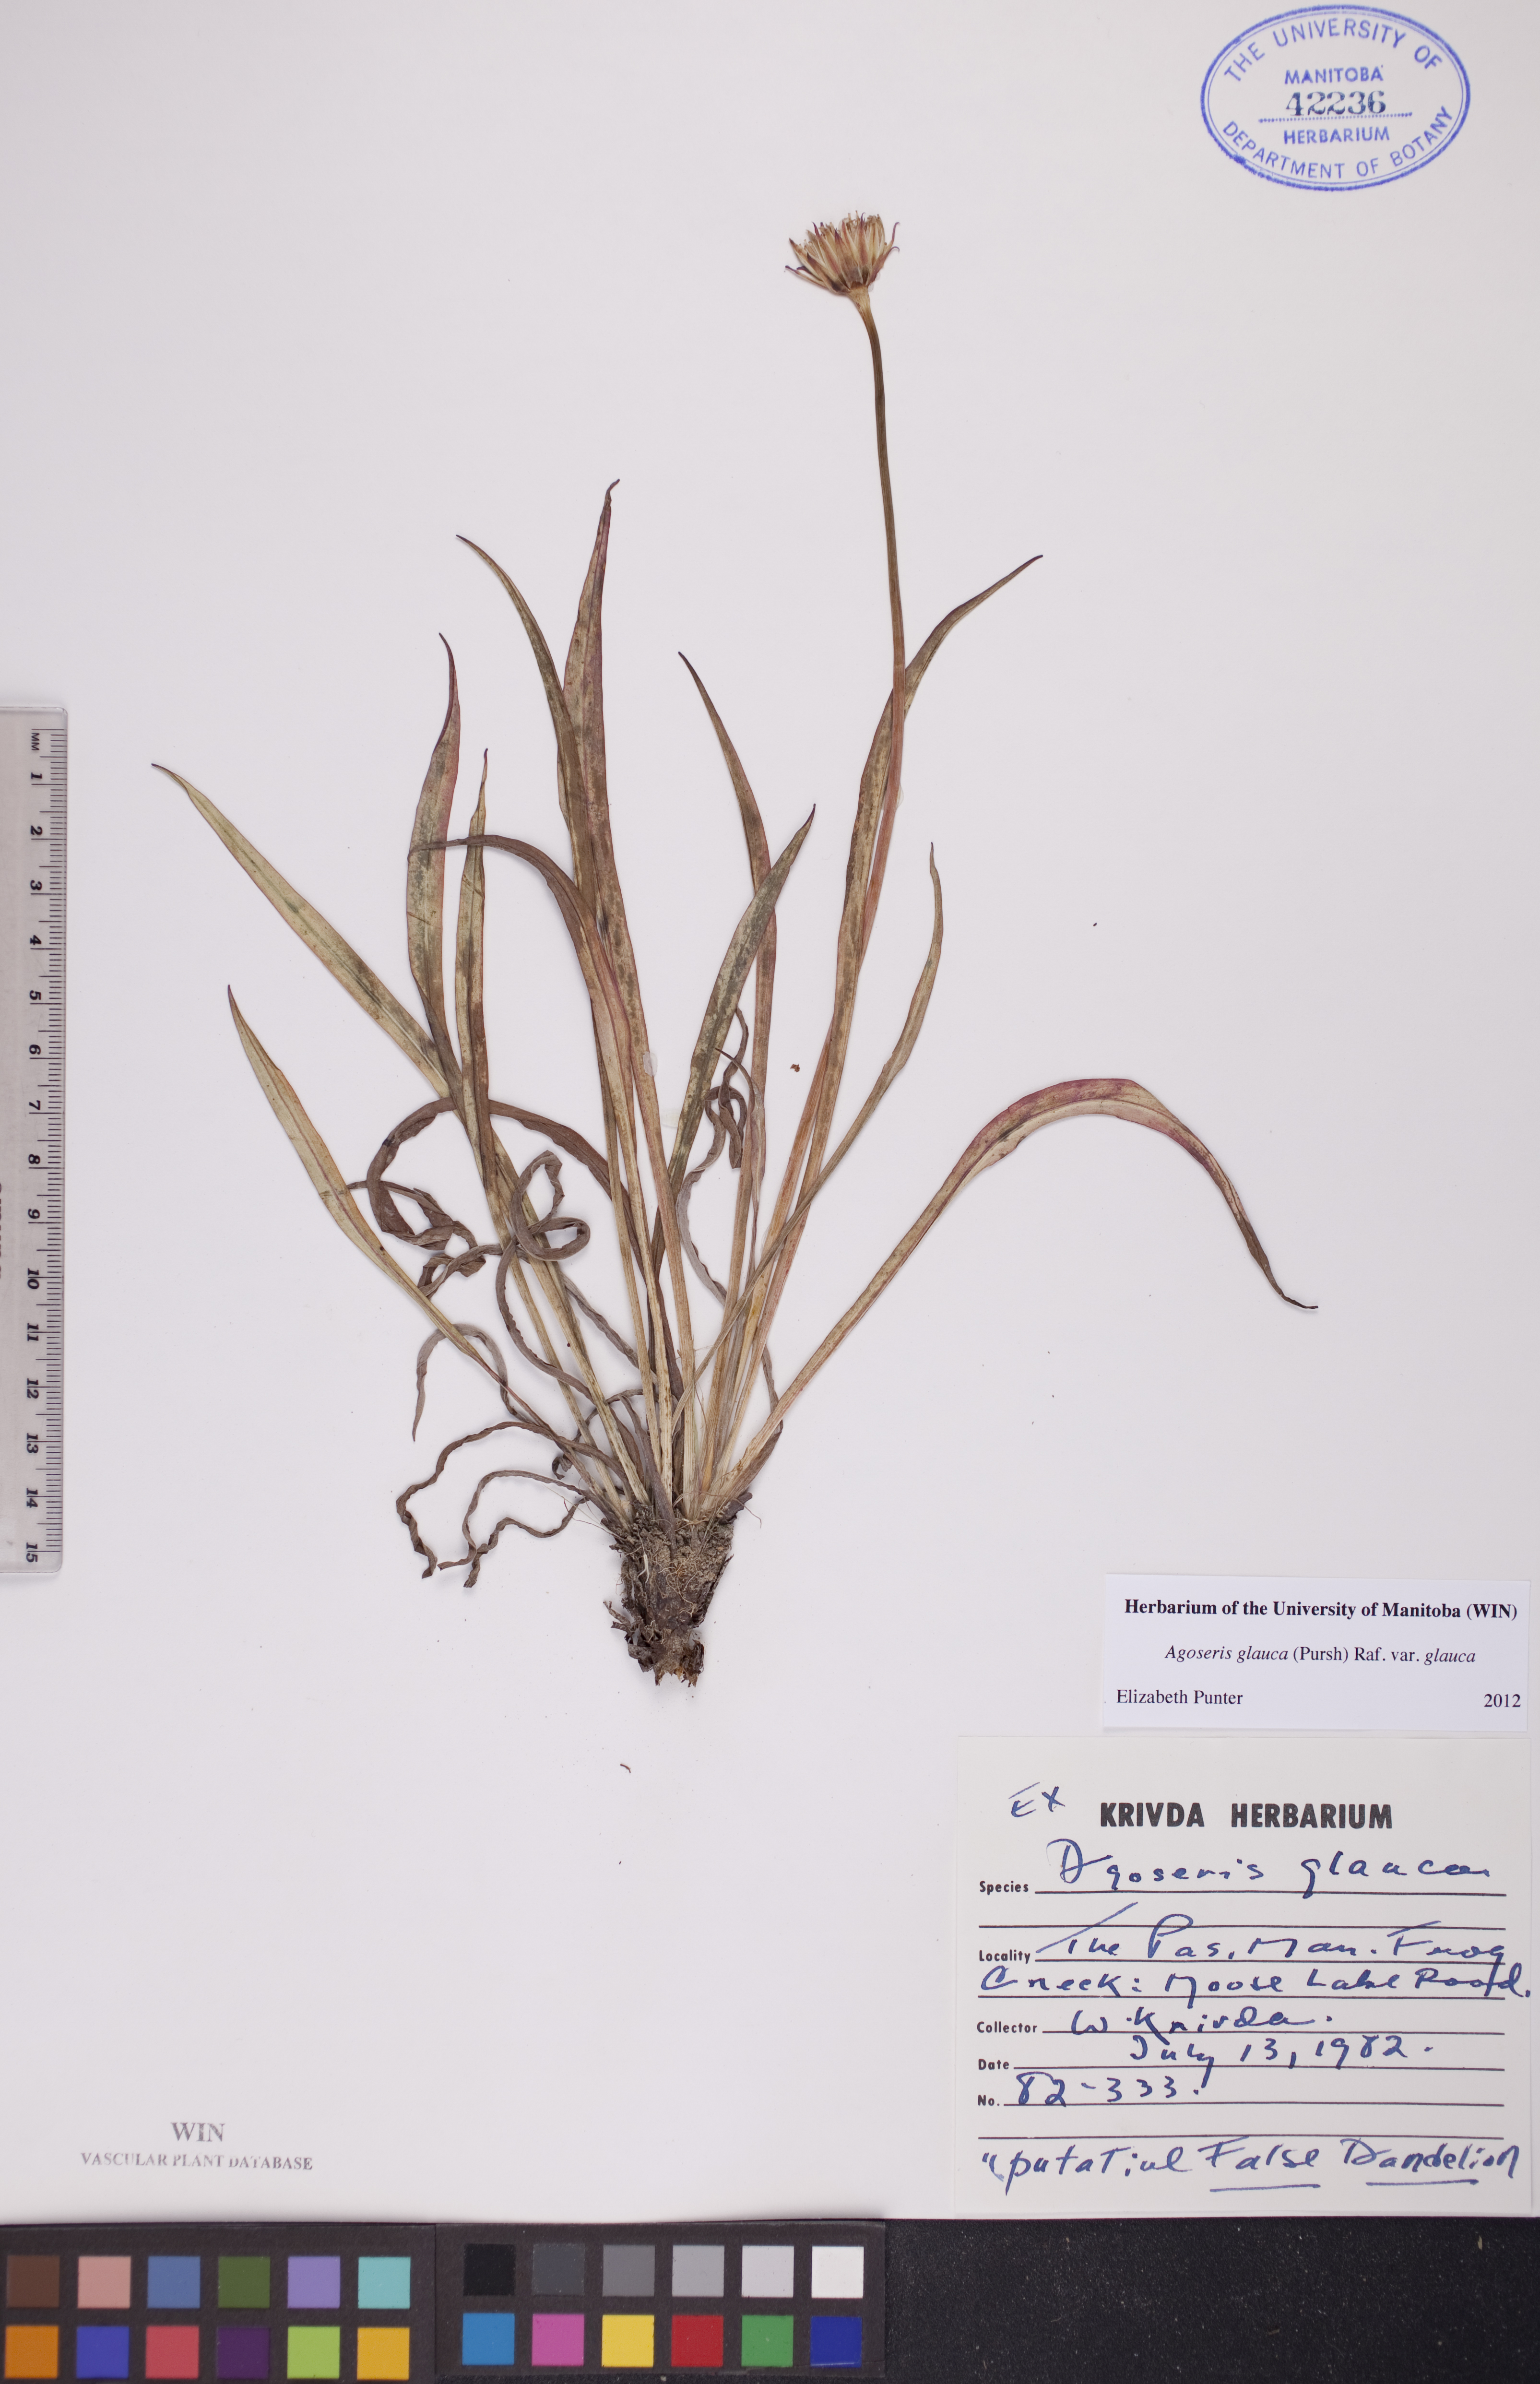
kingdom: Plantae
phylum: Tracheophyta
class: Magnoliopsida
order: Asterales
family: Asteraceae
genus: Agoseris
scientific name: Agoseris glauca
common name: Prairie agoseris
